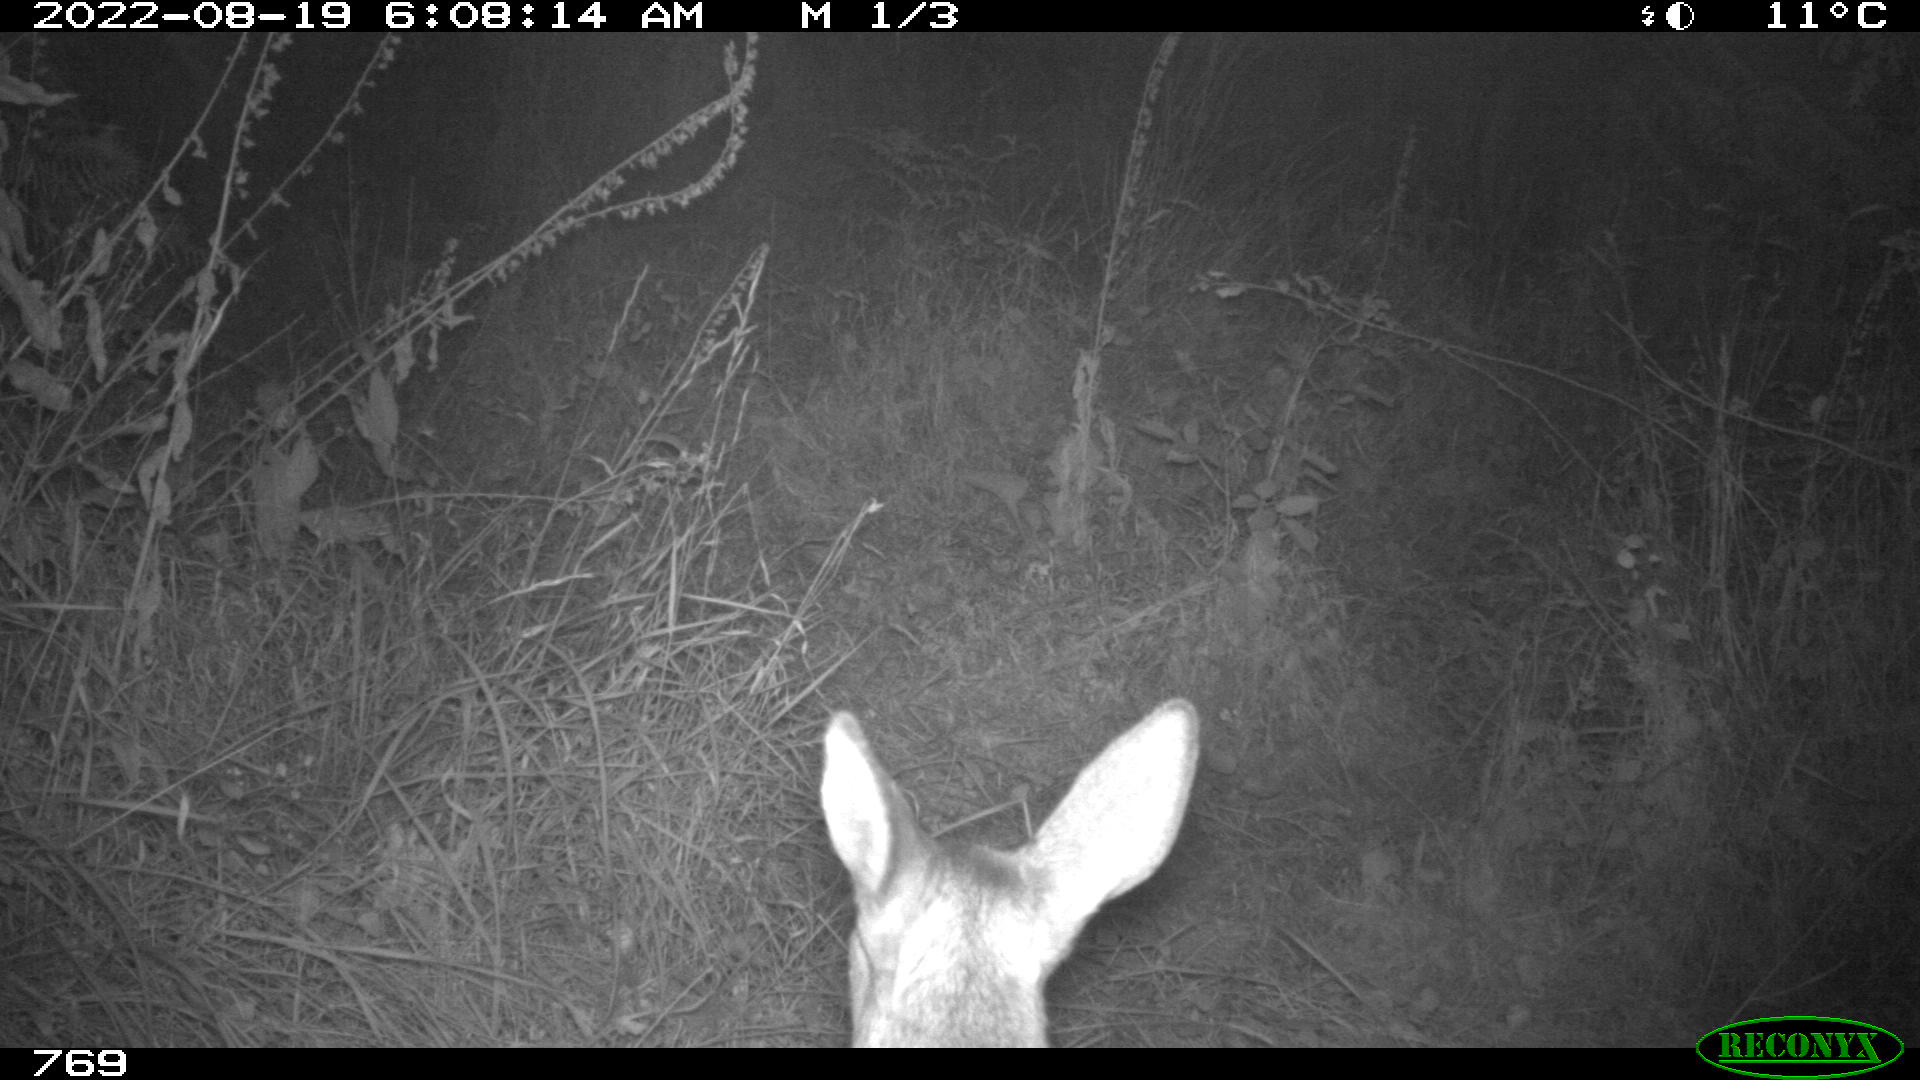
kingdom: Animalia
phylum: Chordata
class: Mammalia
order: Artiodactyla
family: Cervidae
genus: Capreolus
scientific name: Capreolus capreolus
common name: Western roe deer
